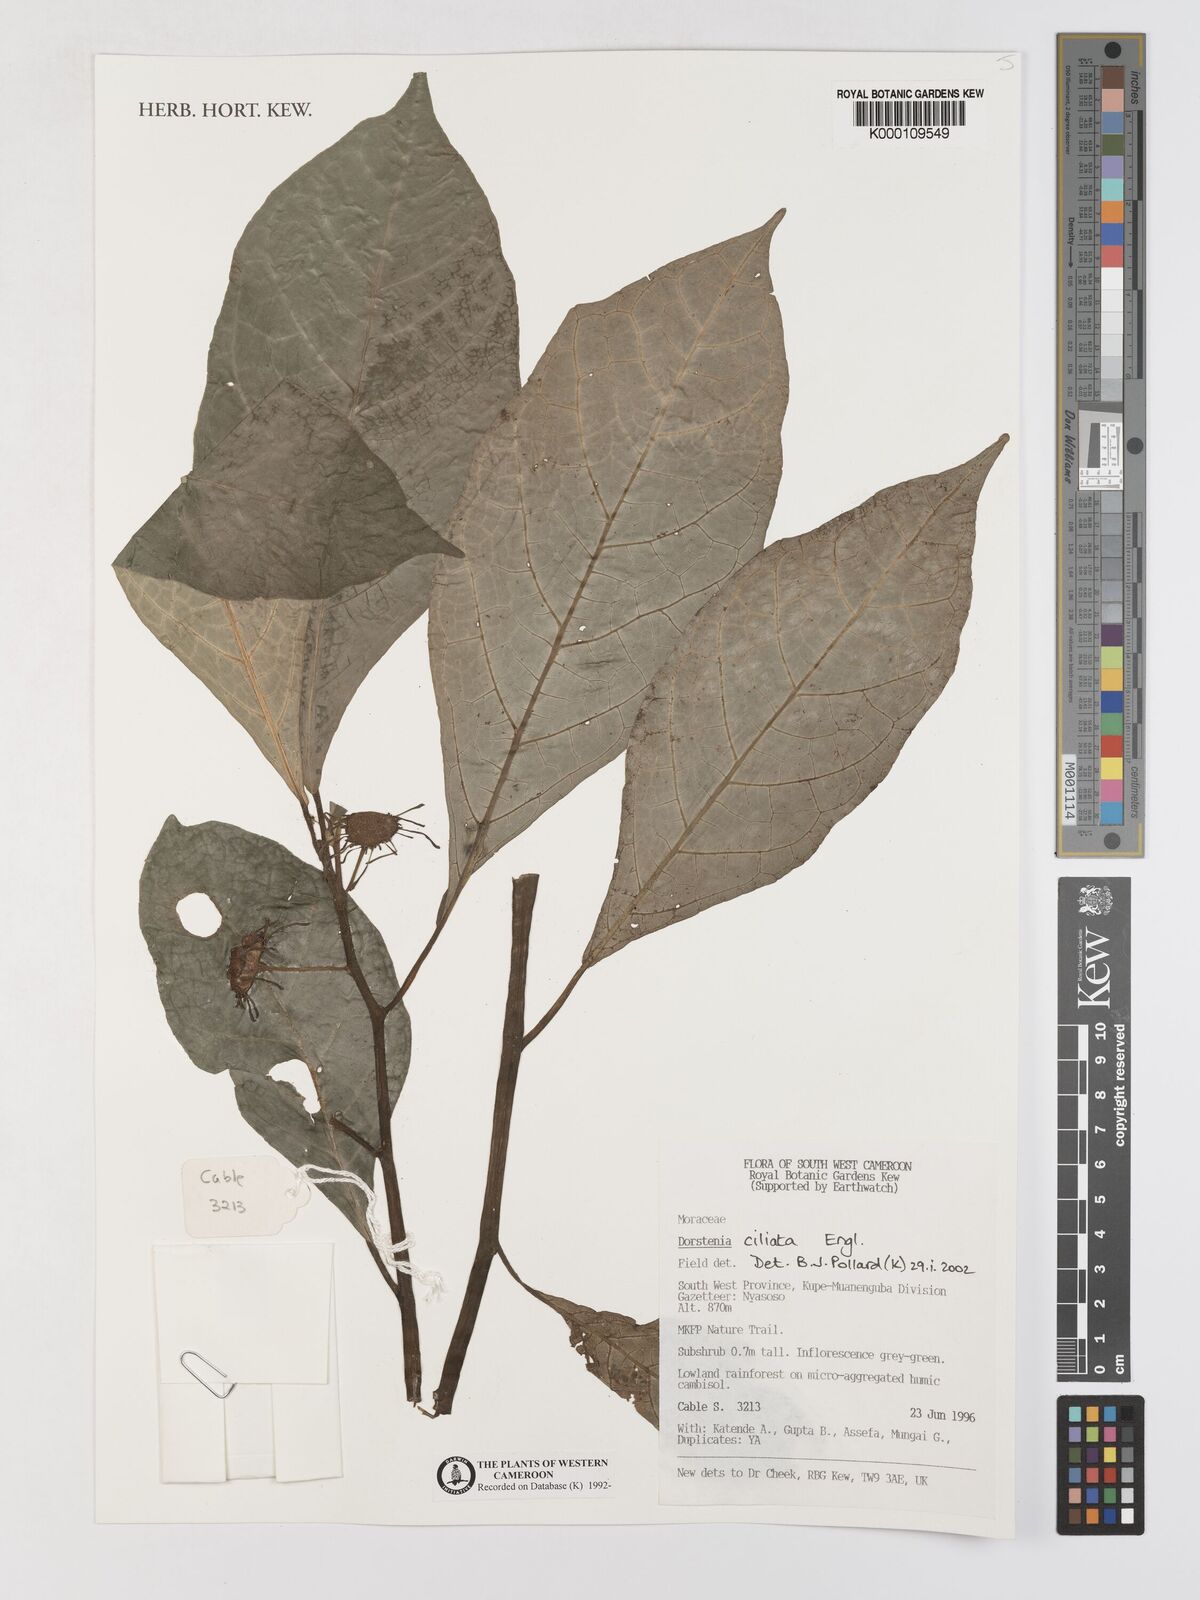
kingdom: Plantae
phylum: Tracheophyta
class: Magnoliopsida
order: Rosales
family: Moraceae
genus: Dorstenia
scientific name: Dorstenia ciliata
